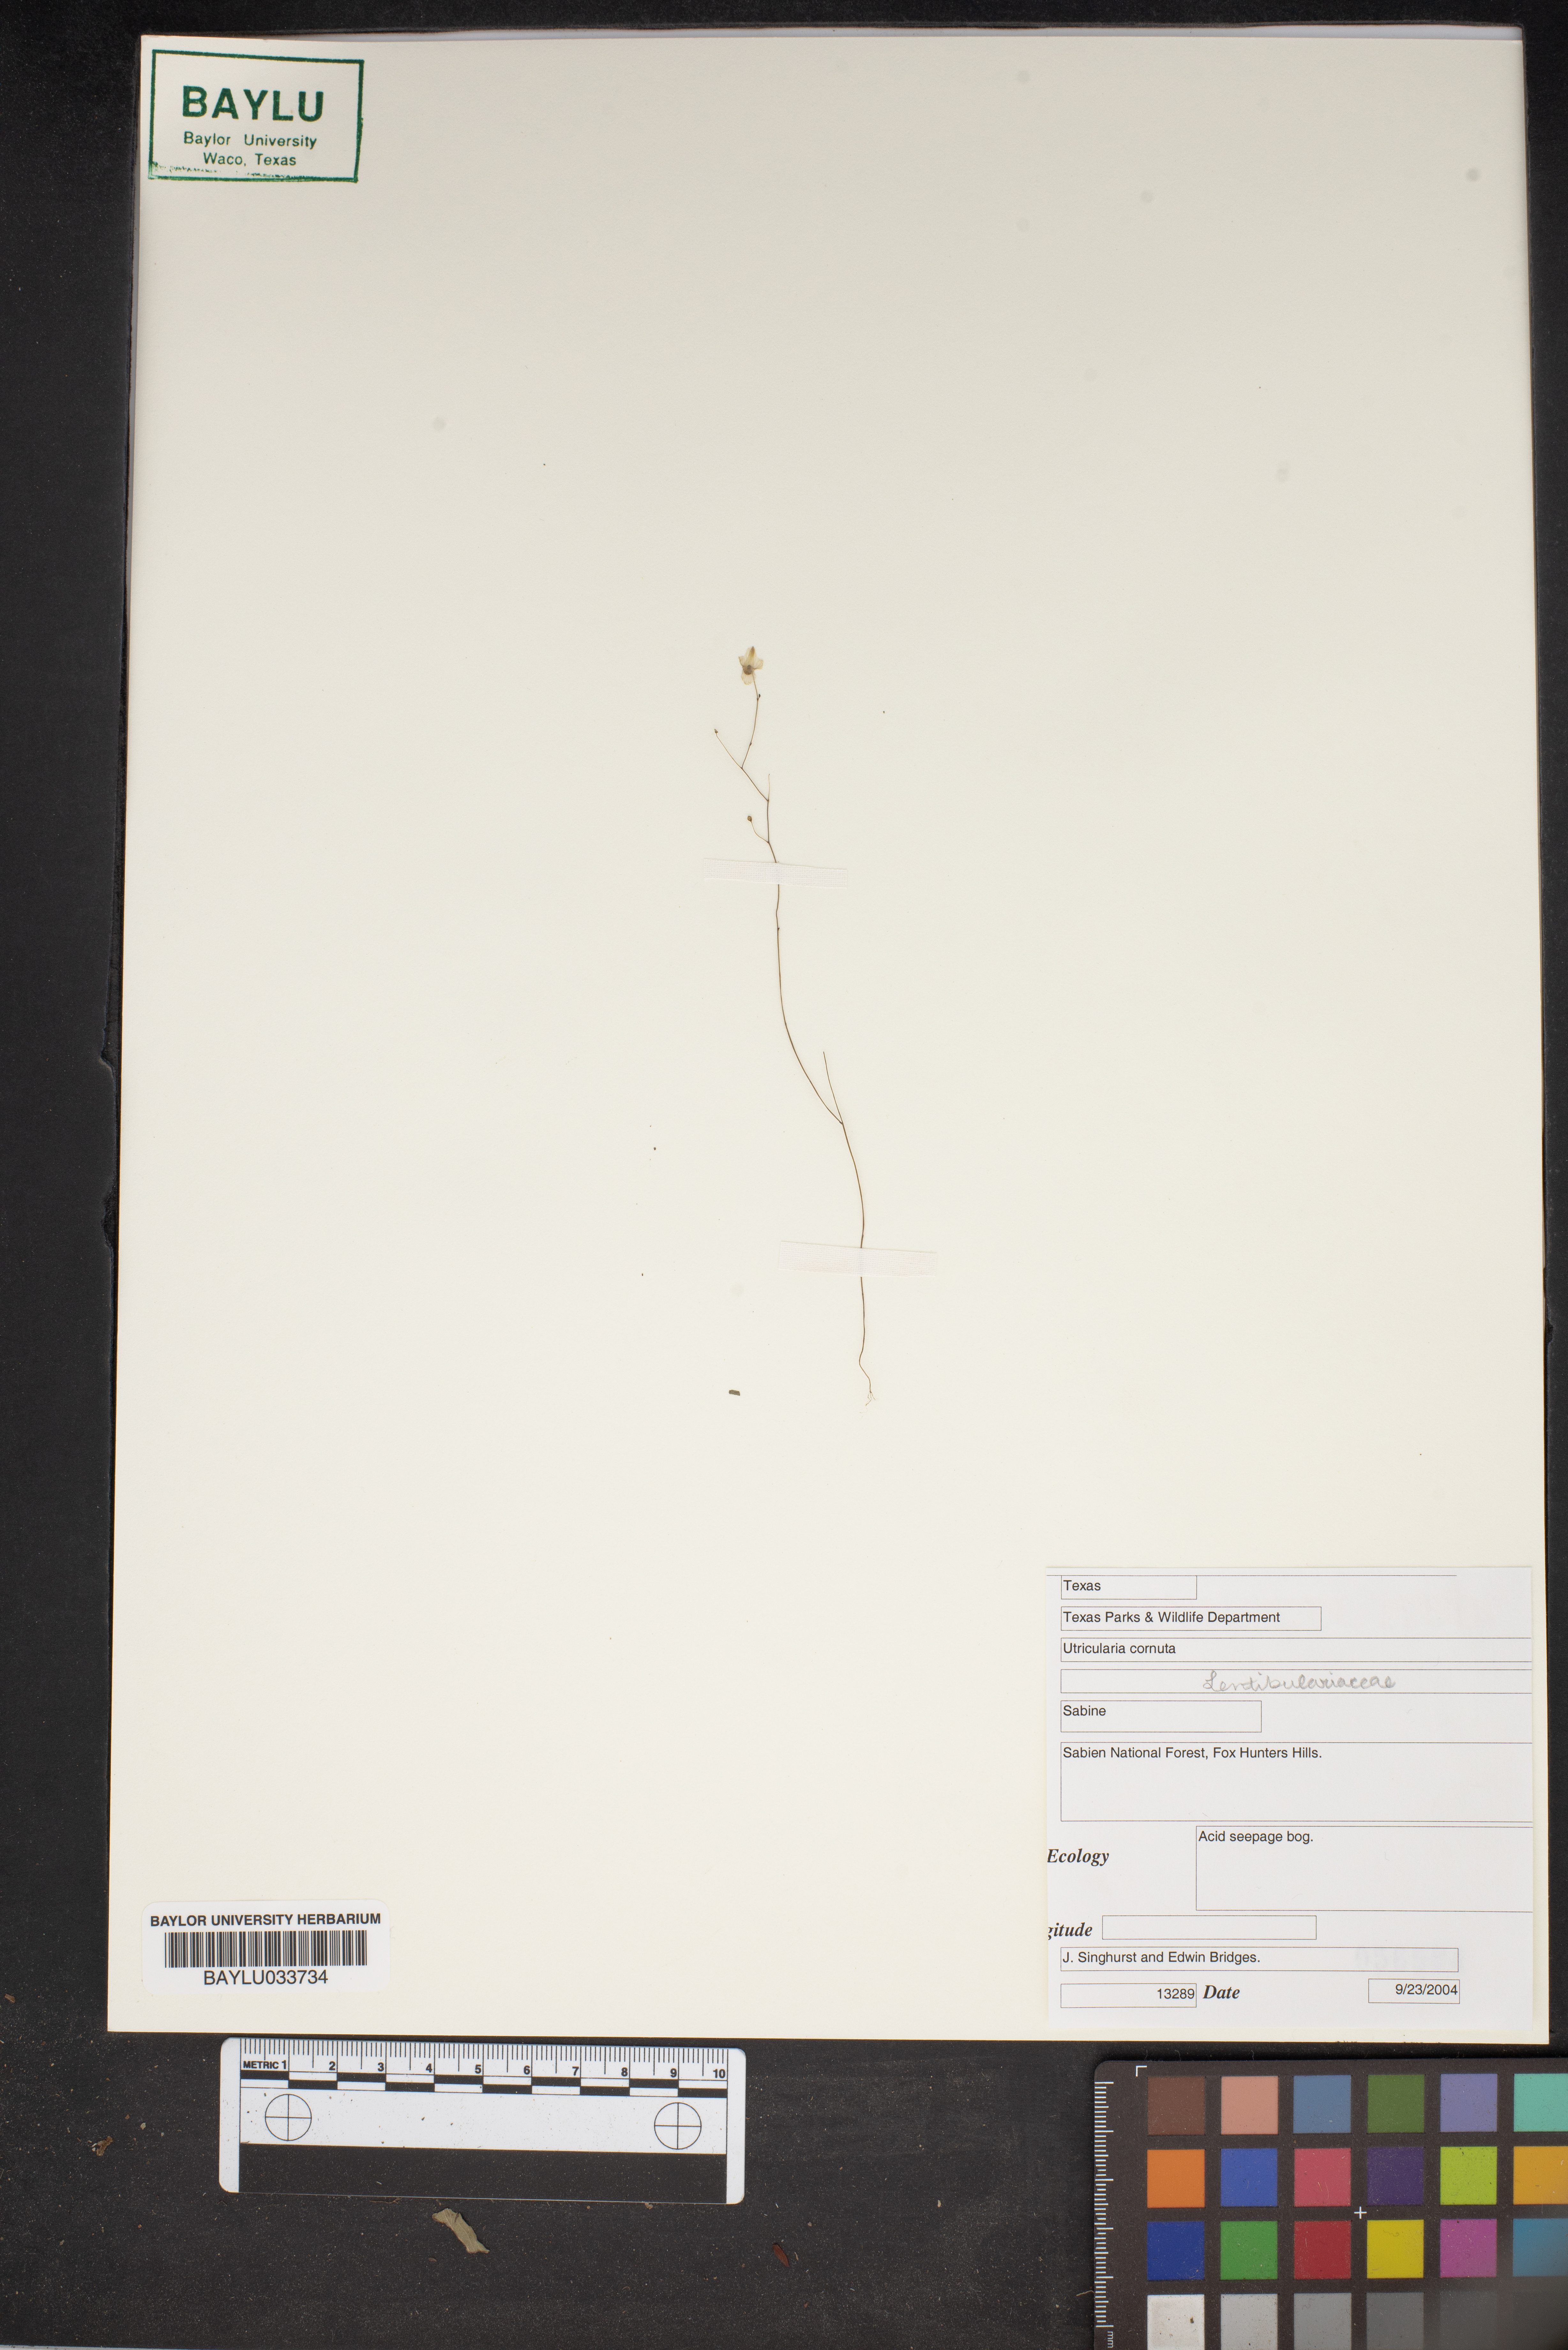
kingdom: Plantae
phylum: Tracheophyta
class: Magnoliopsida
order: Lamiales
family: Lentibulariaceae
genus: Utricularia
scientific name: Utricularia cornuta
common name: Horned bladderwort
